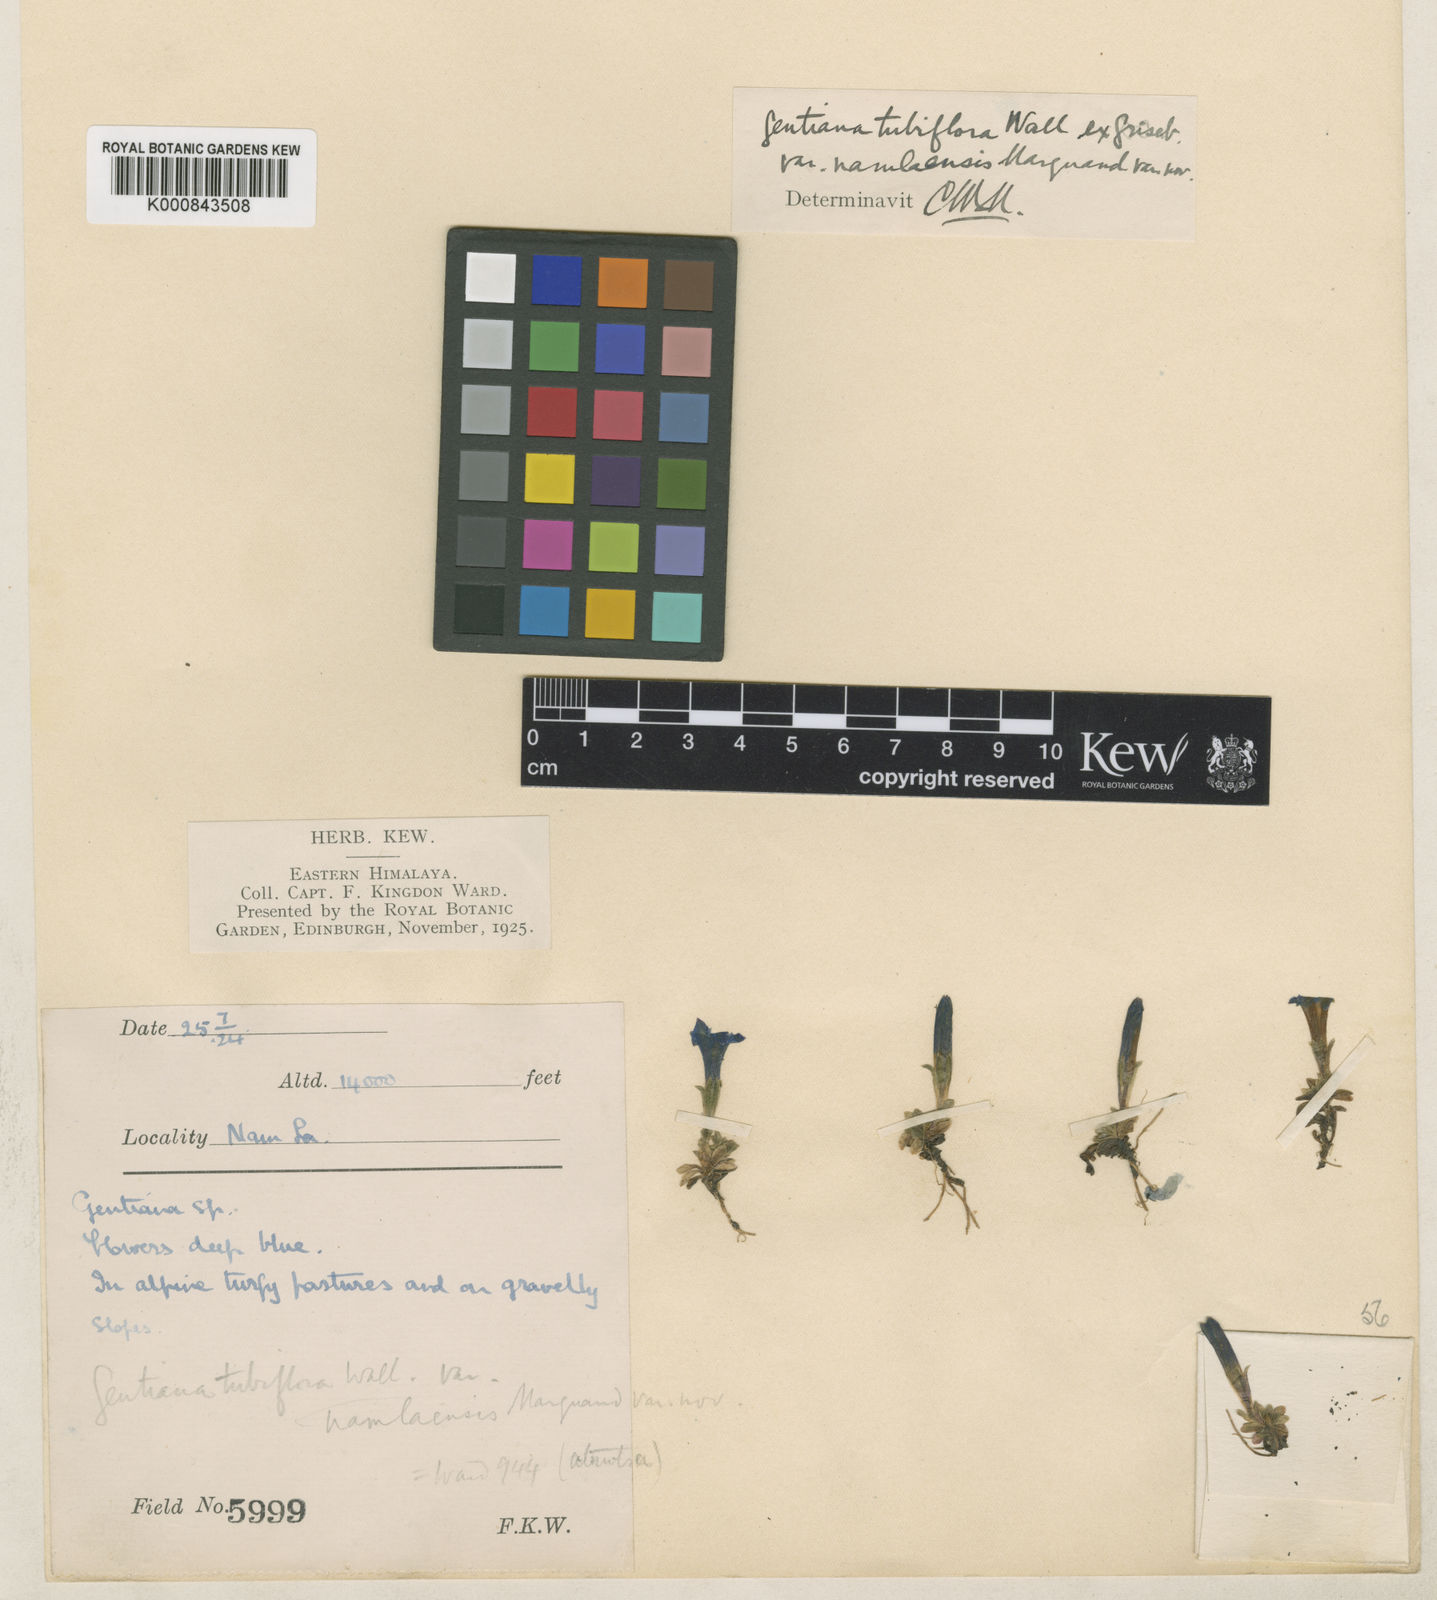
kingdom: Plantae
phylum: Tracheophyta
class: Magnoliopsida
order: Gentianales
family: Gentianaceae
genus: Gentiana
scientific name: Gentiana tubiflora
